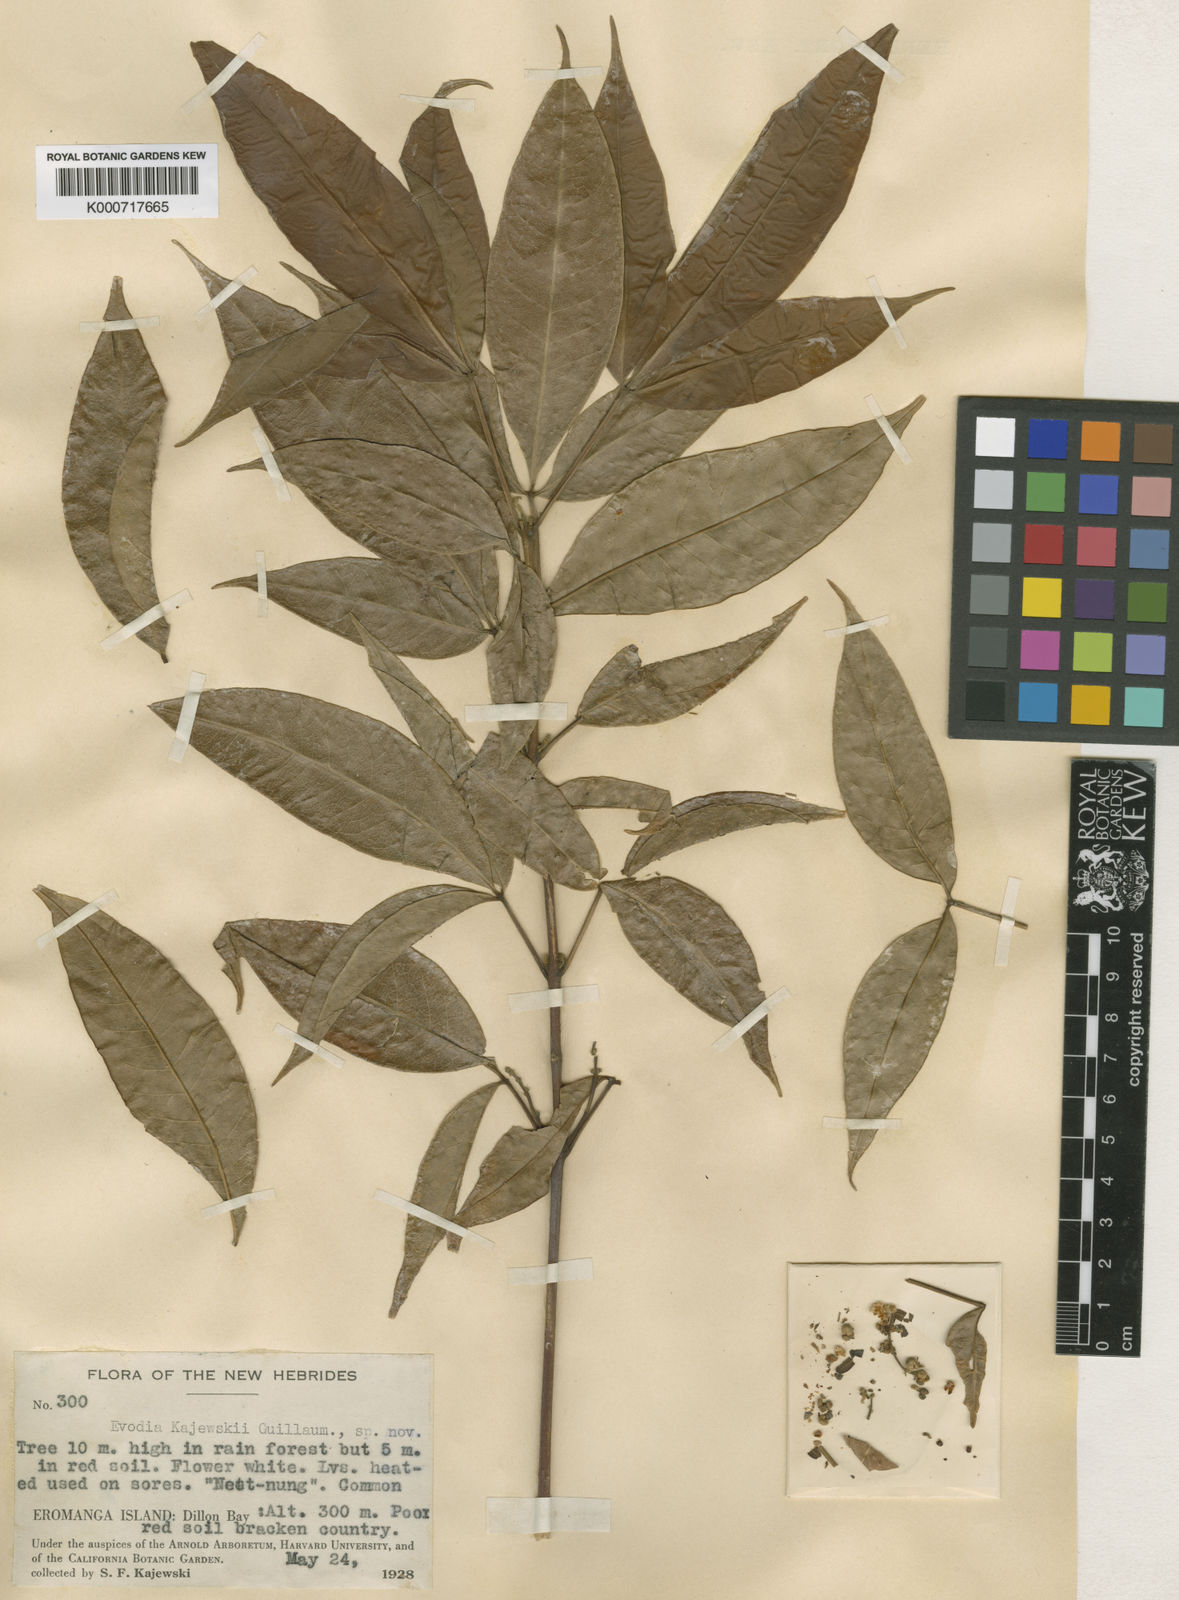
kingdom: Plantae
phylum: Tracheophyta
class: Magnoliopsida
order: Sapindales
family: Rutaceae
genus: Melicope
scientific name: Melicope denhamii
